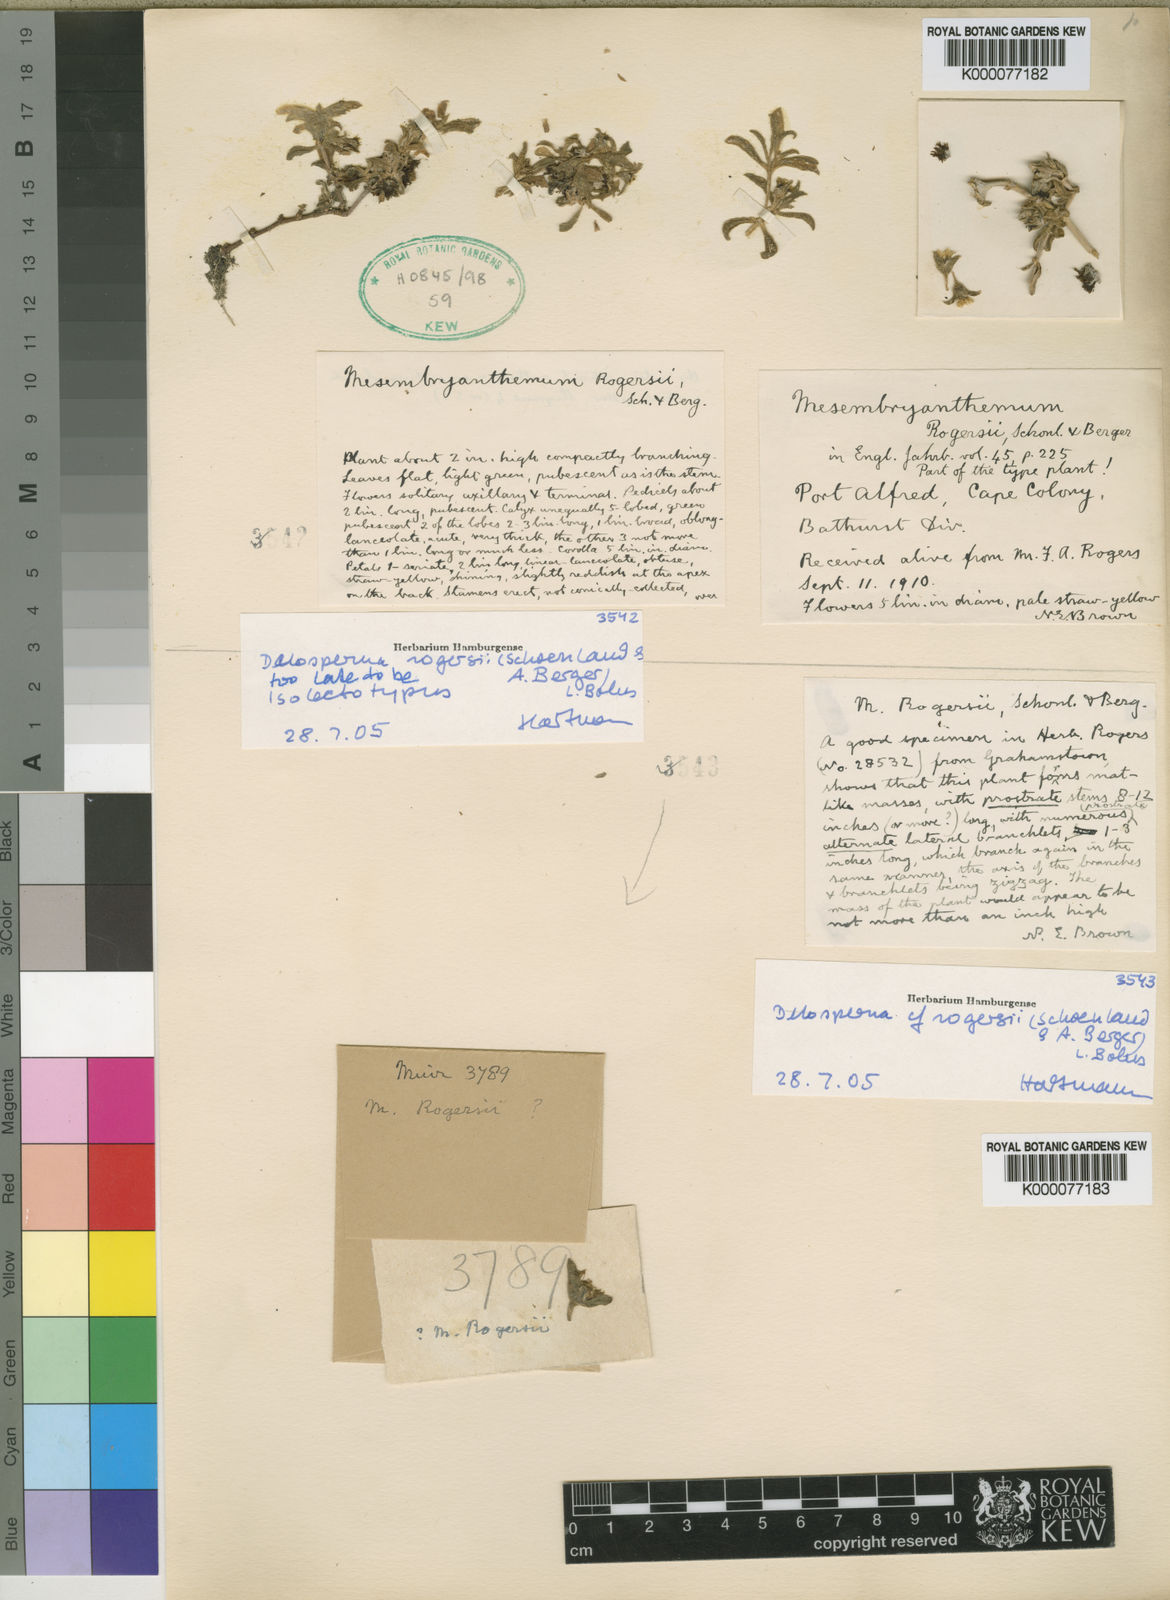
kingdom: Plantae
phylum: Tracheophyta
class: Magnoliopsida
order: Caryophyllales
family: Aizoaceae
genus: Delosperma
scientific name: Delosperma rogersii
